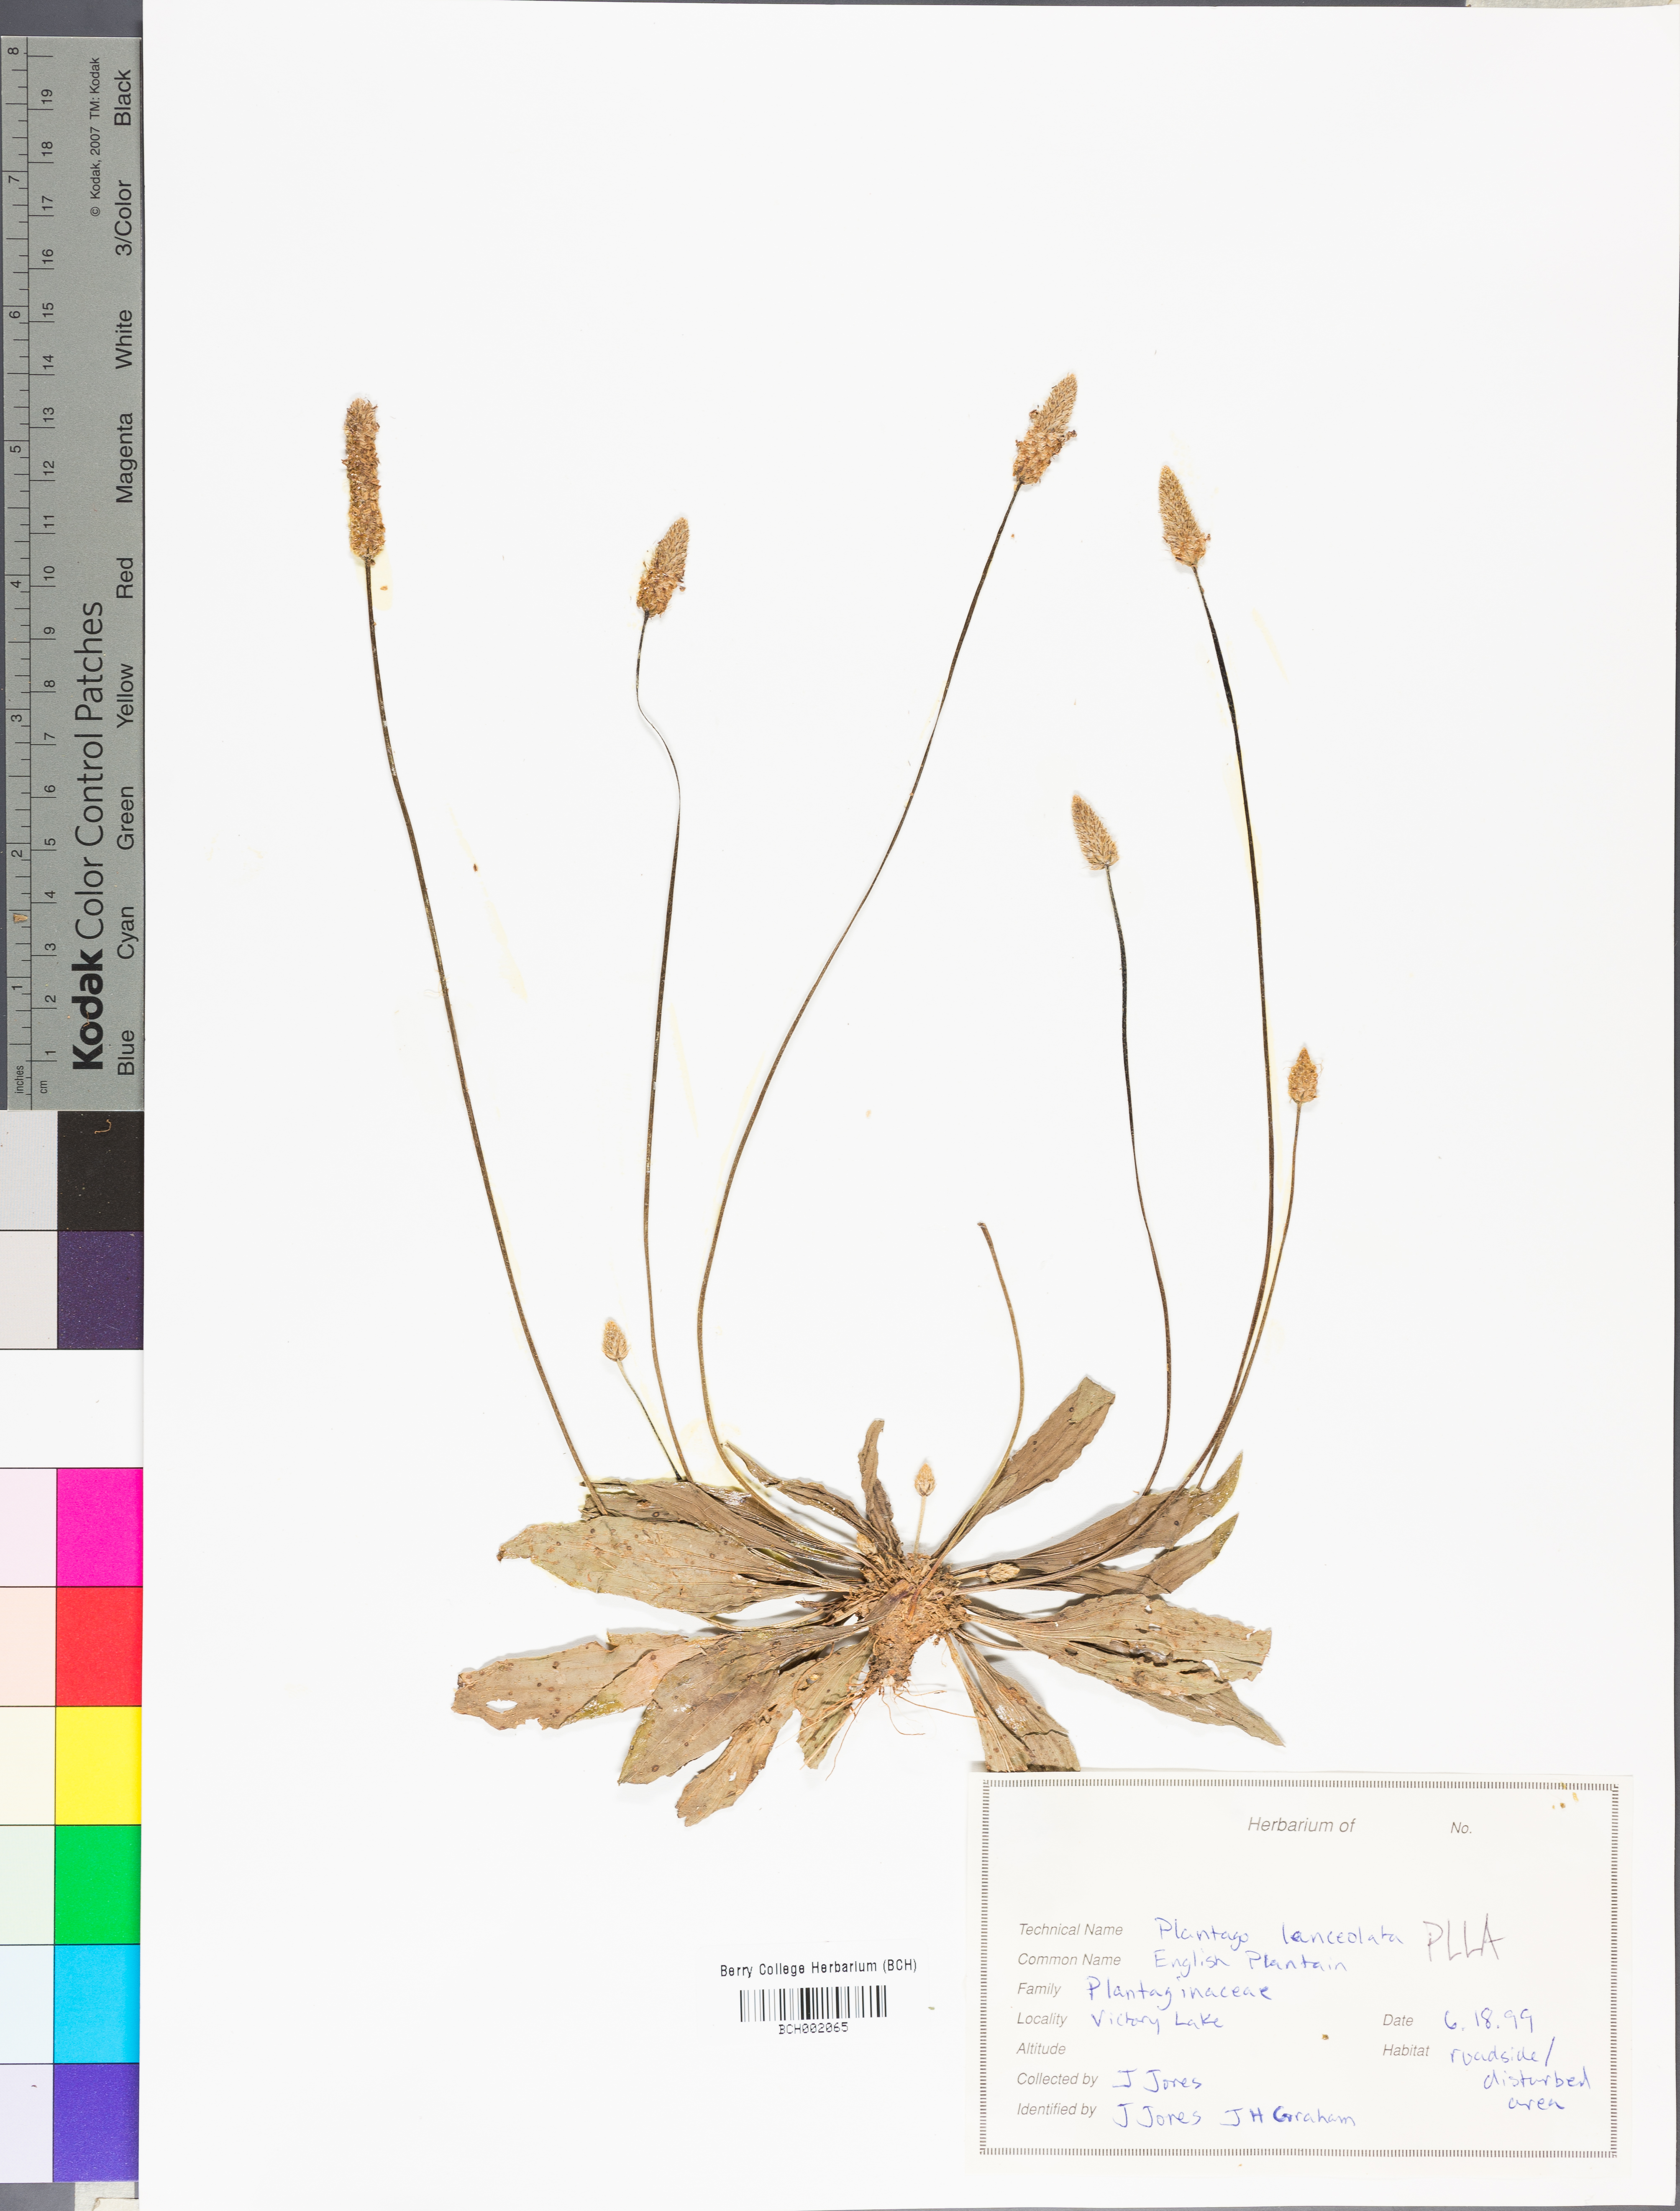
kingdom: Plantae
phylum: Tracheophyta
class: Magnoliopsida
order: Lamiales
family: Plantaginaceae
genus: Plantago
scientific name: Plantago lanceolata
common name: Ribwort plantain
